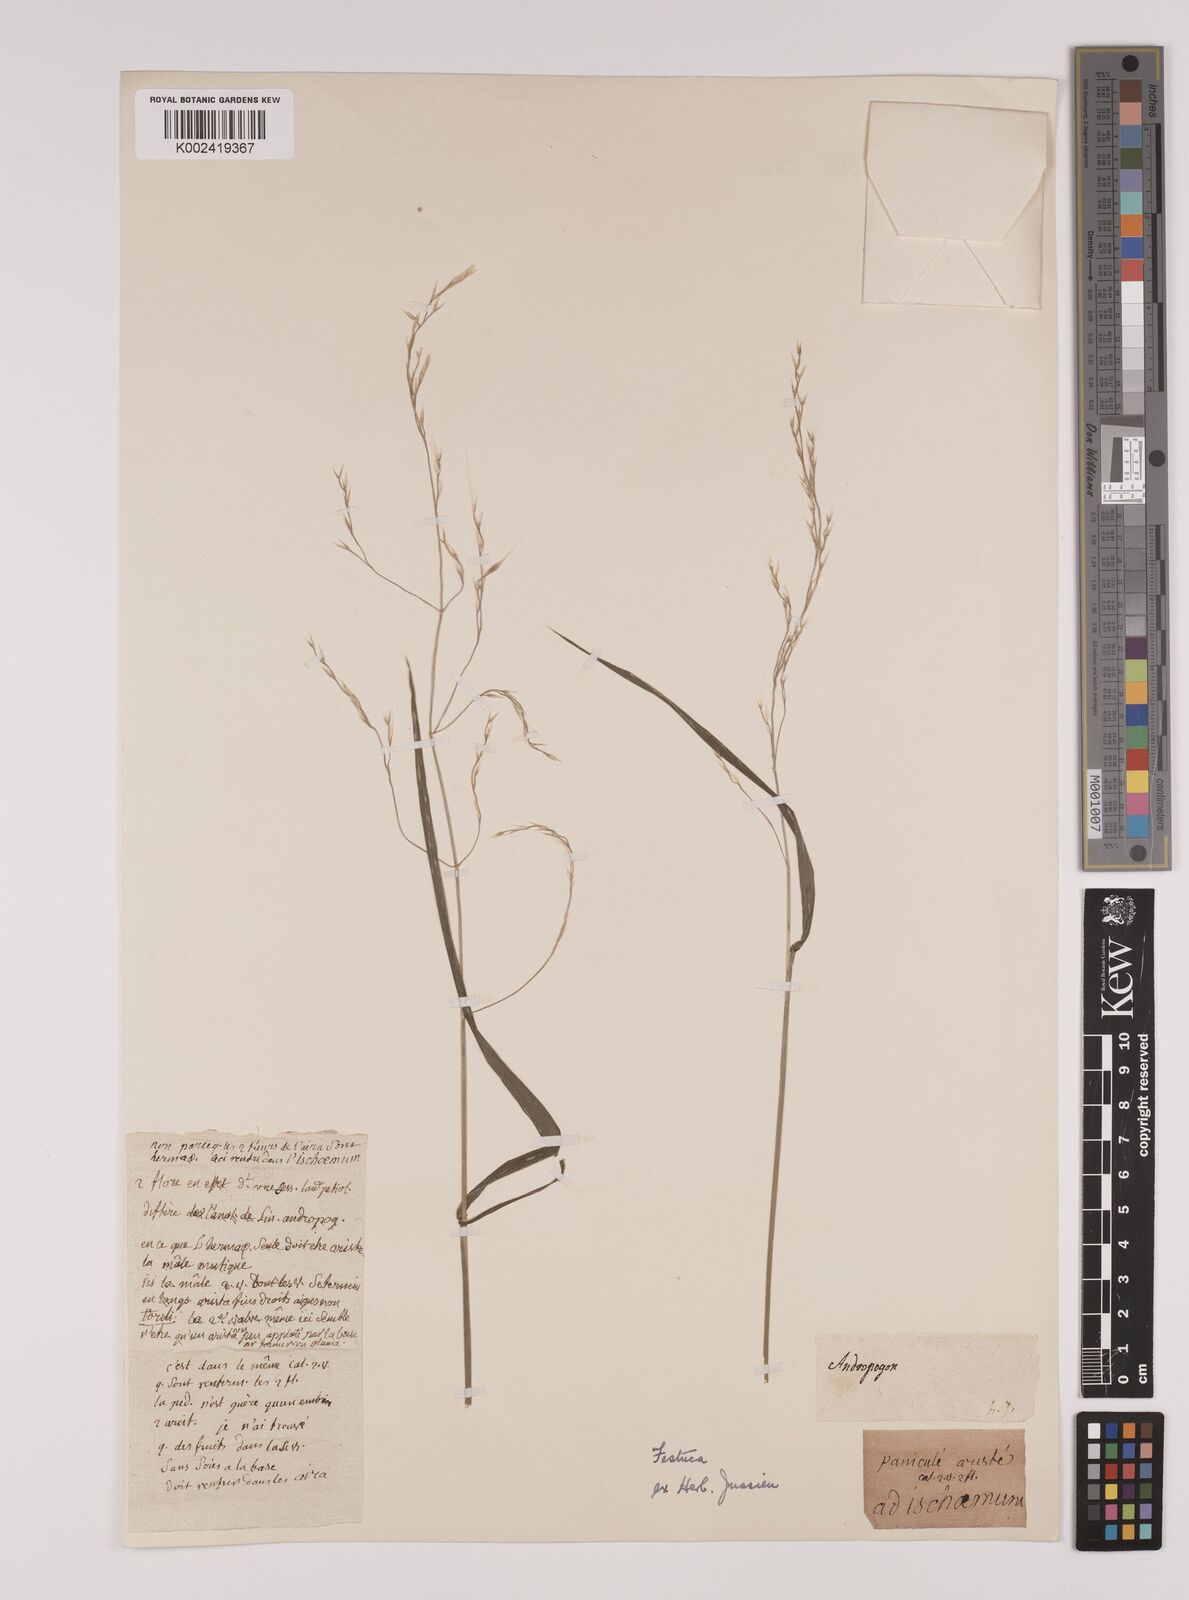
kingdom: Plantae
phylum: Tracheophyta
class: Liliopsida
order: Poales
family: Poaceae
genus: Lolium
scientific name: Lolium giganteum
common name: Giant fescue
